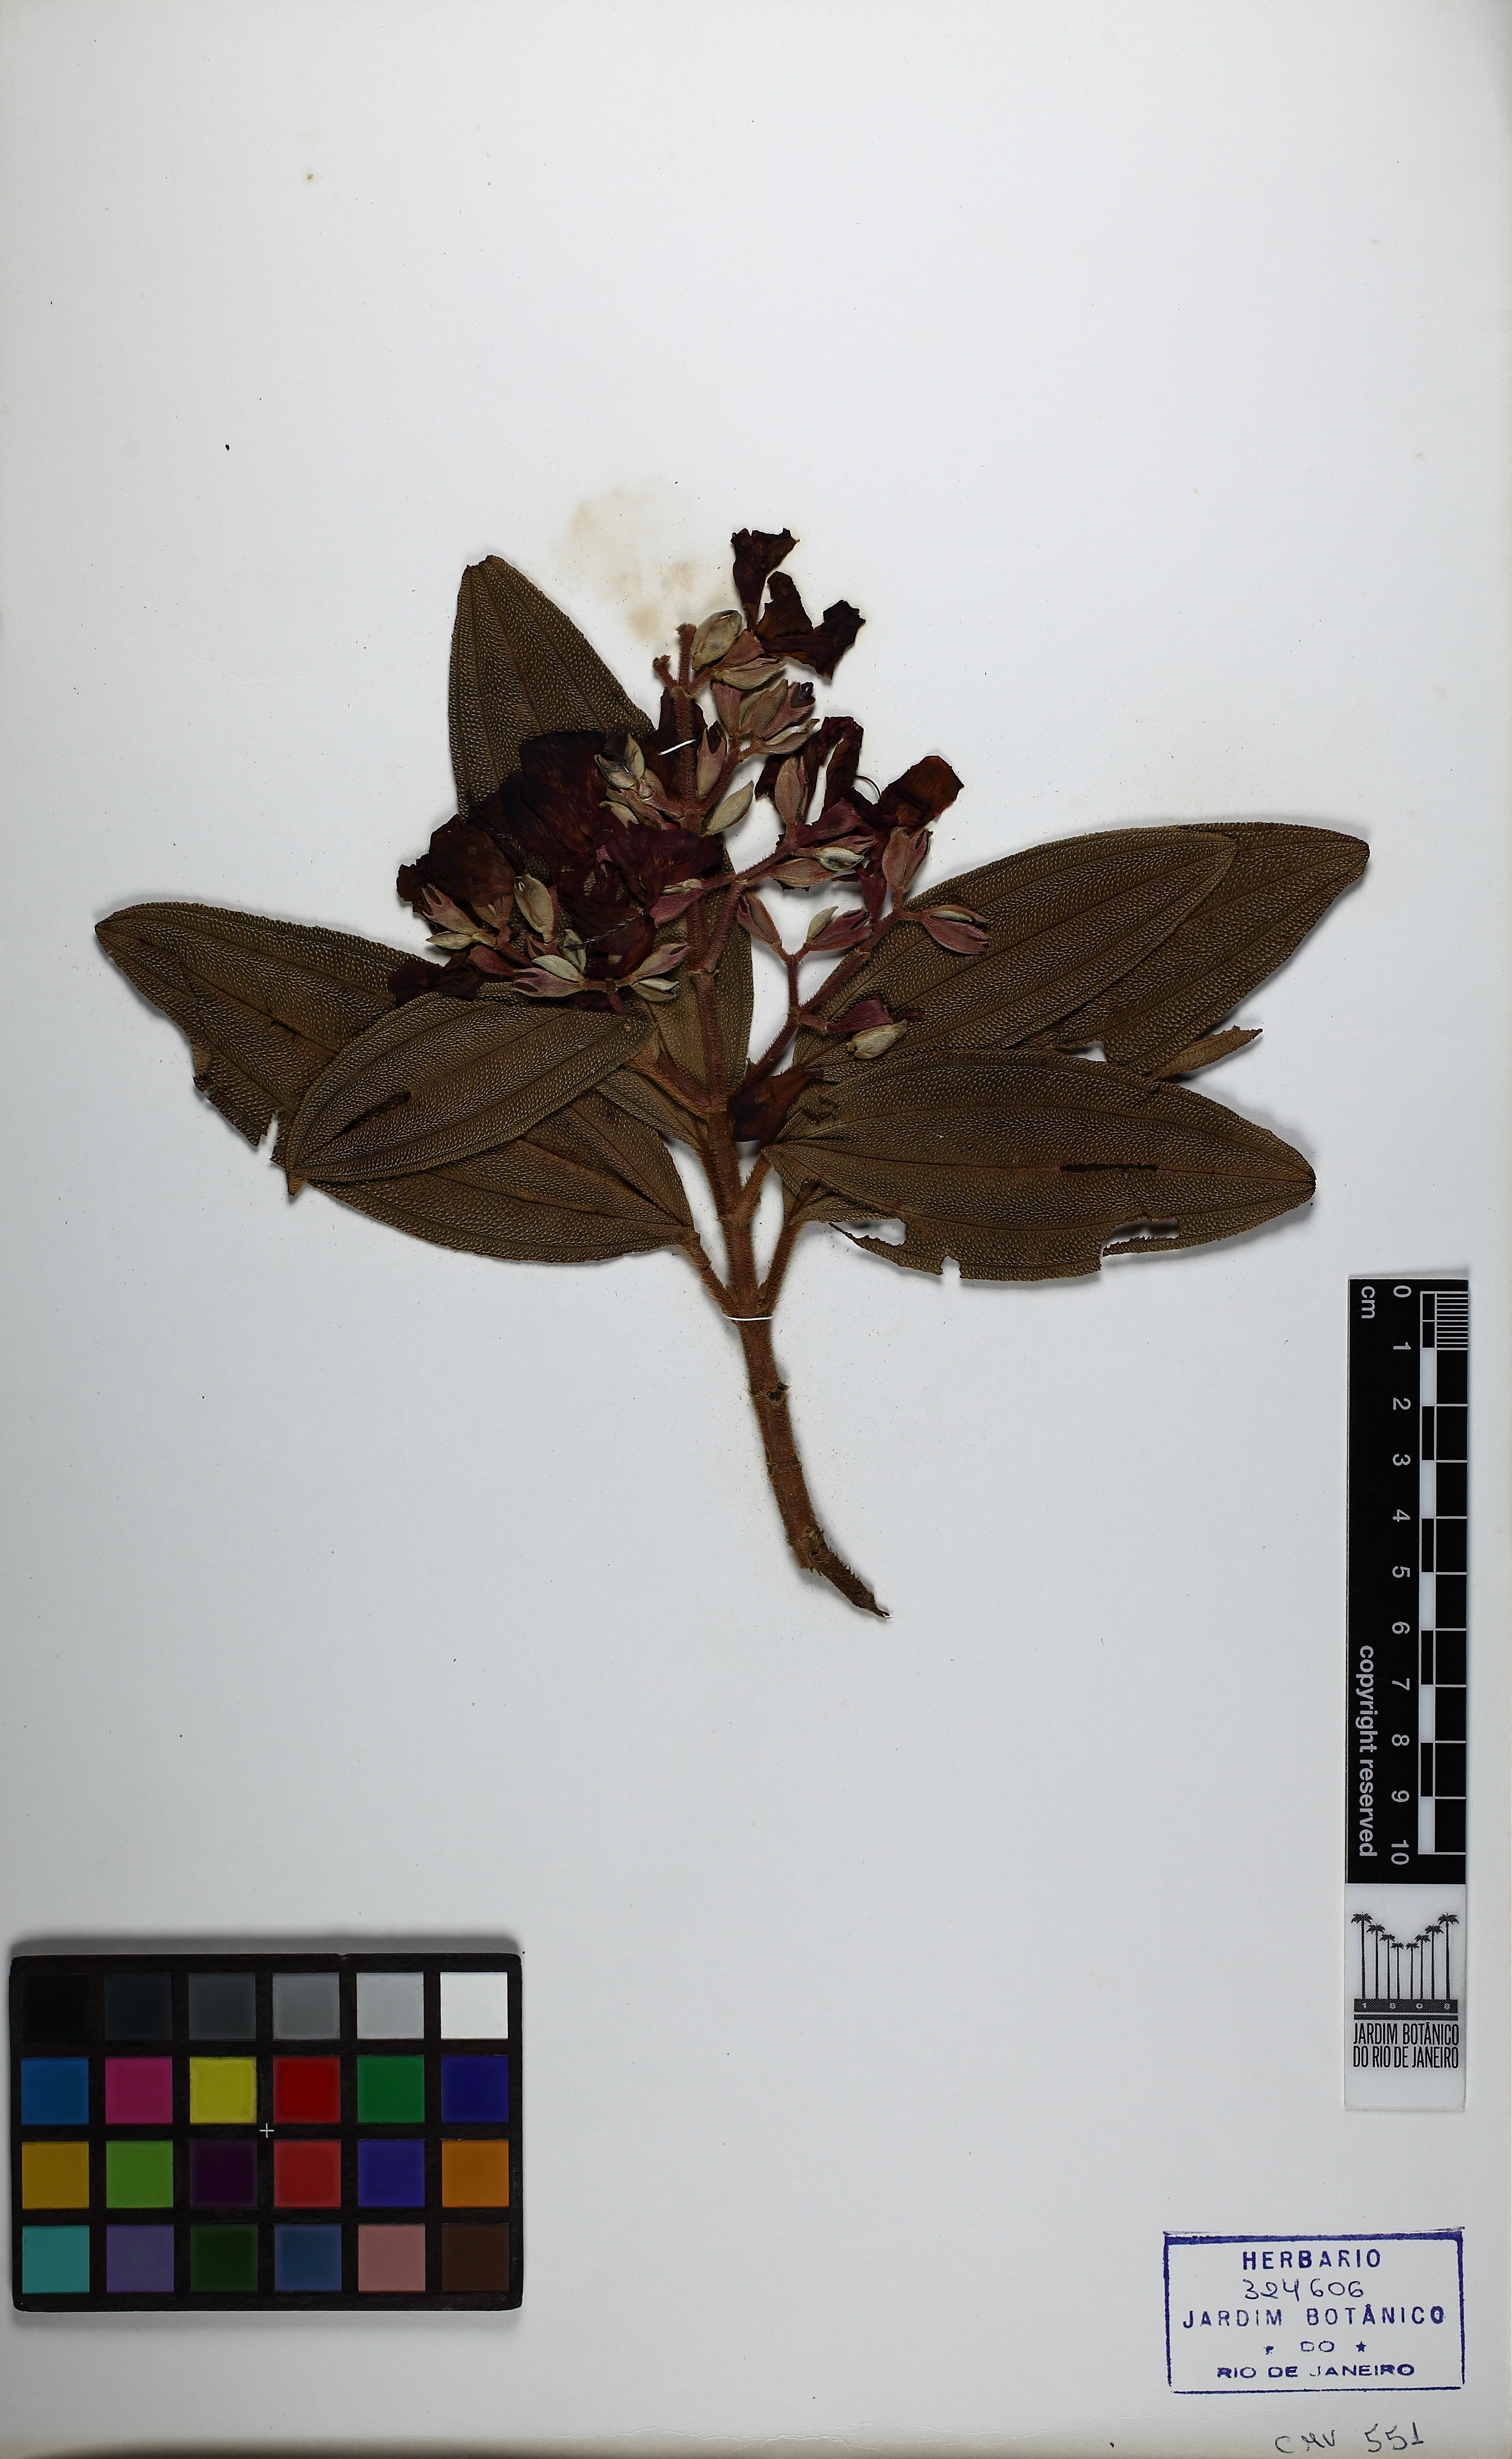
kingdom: Plantae
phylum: Tracheophyta
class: Magnoliopsida
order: Celastrales
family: Celastraceae
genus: Monteverdia
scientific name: Monteverdia aquifolium
